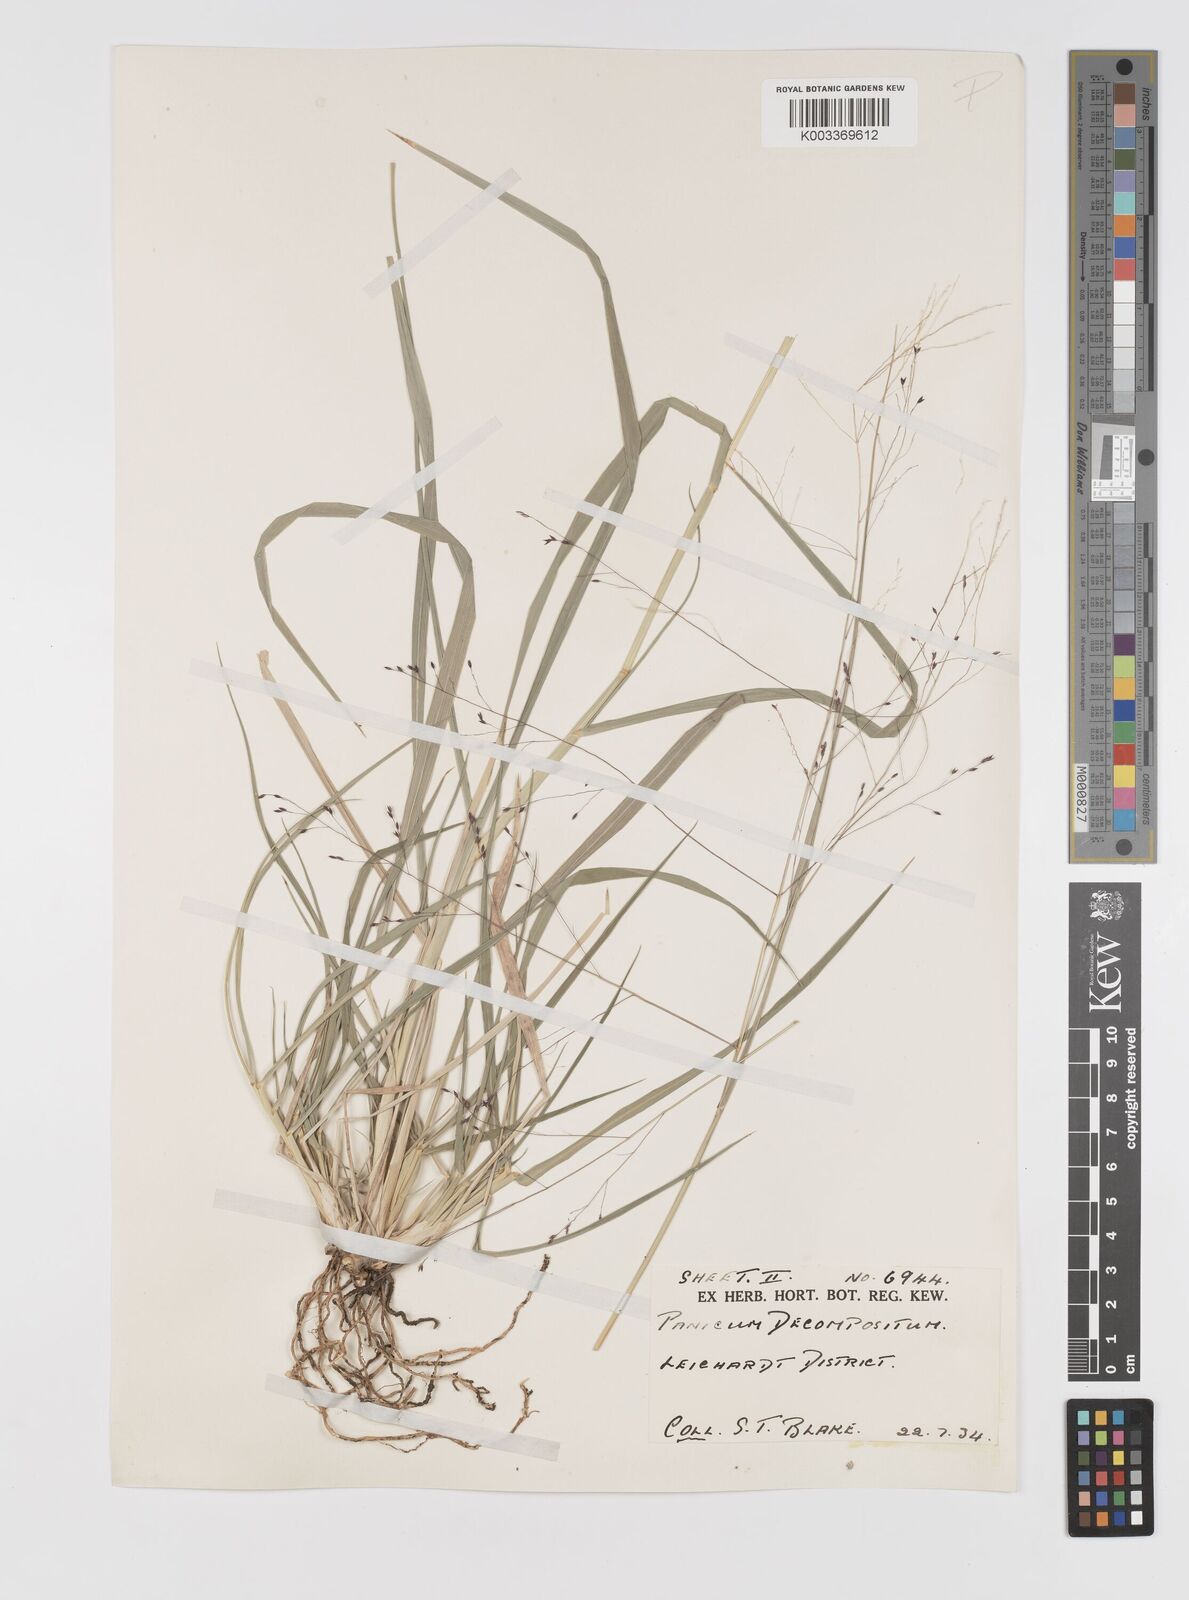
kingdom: Plantae
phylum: Tracheophyta
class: Liliopsida
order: Poales
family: Poaceae
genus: Panicum
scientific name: Panicum decompositum
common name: Australian millet
